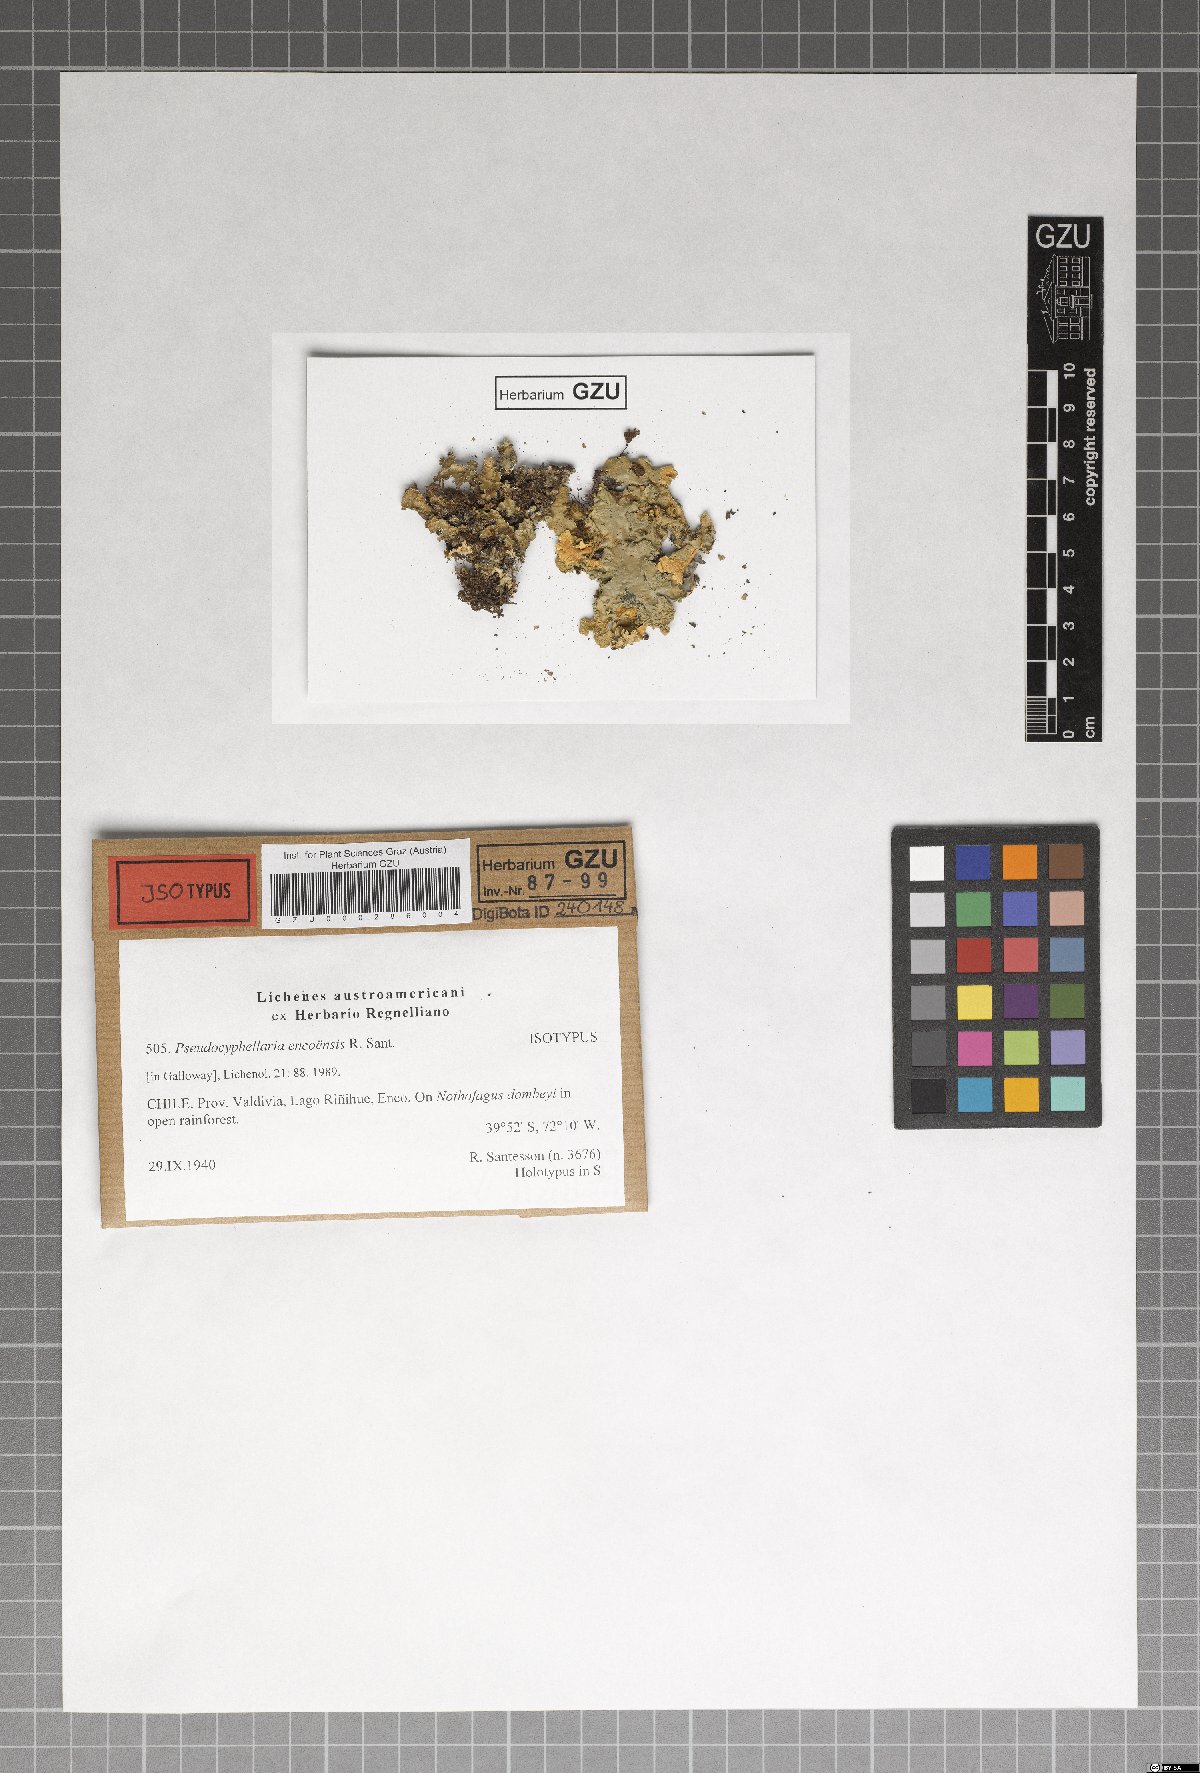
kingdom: Fungi
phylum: Ascomycota
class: Lecanoromycetes
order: Peltigerales
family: Lobariaceae
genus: Podostictina
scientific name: Podostictina encoensis
